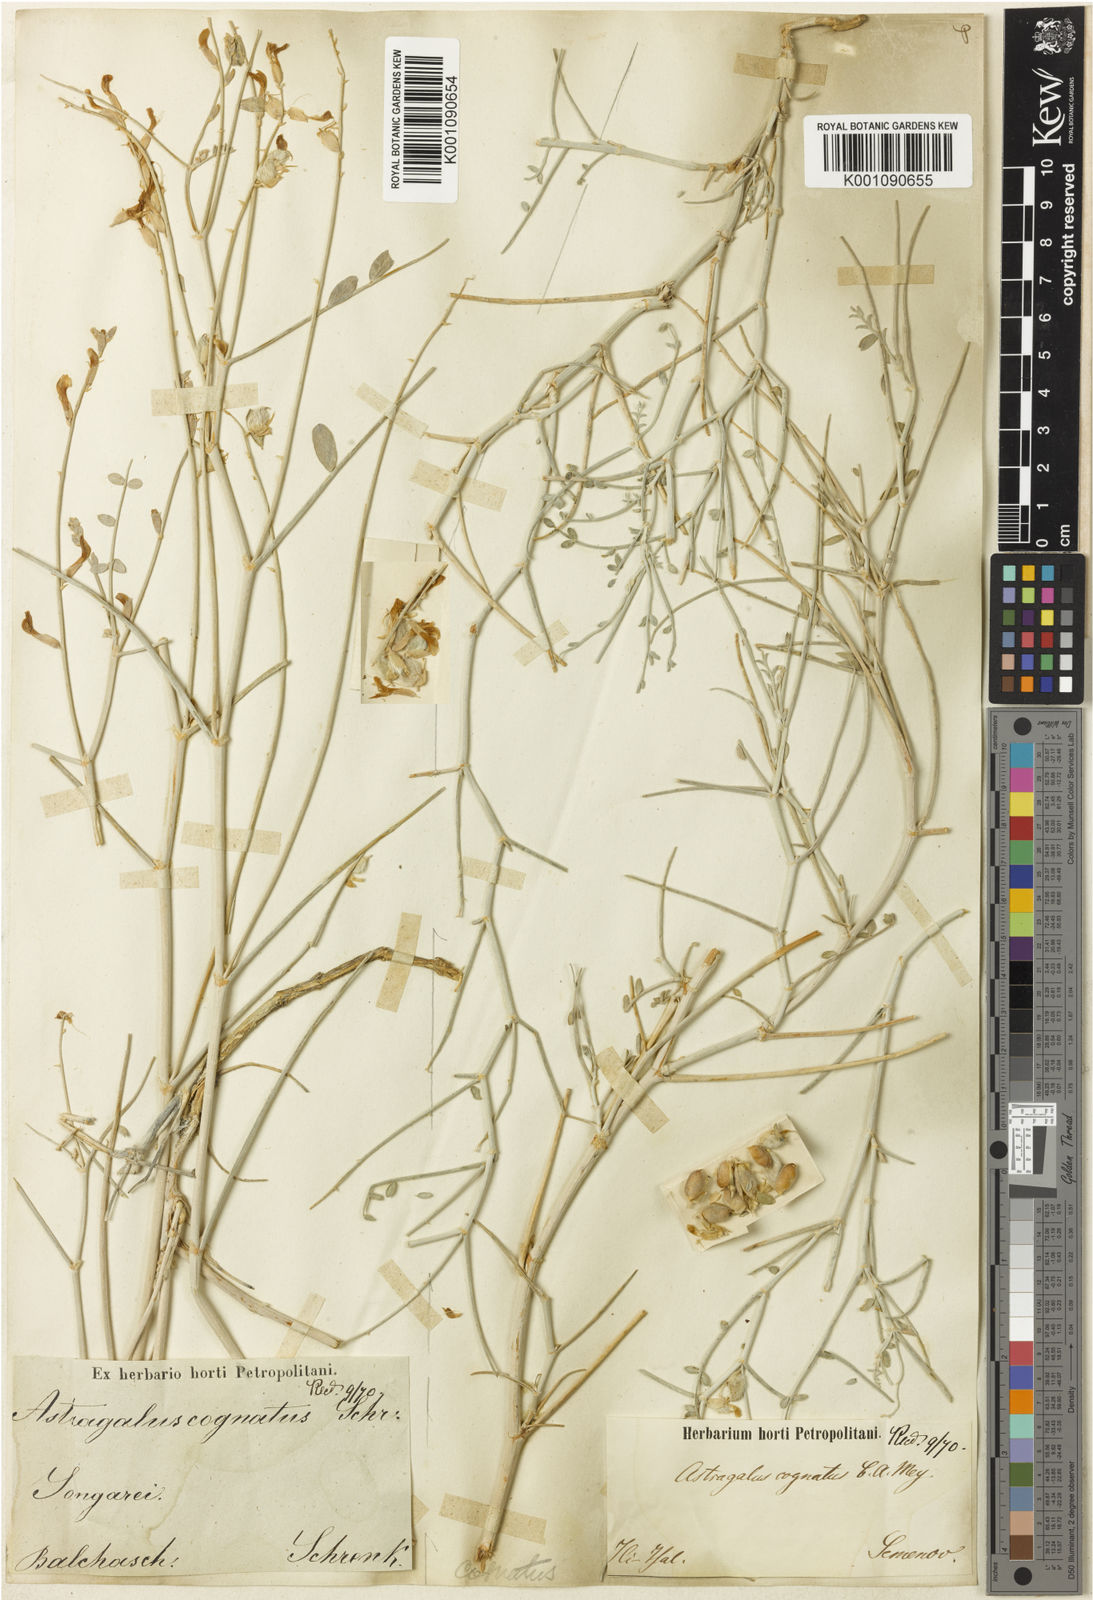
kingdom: Plantae
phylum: Tracheophyta
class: Magnoliopsida
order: Fabales
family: Fabaceae
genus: Astragalus
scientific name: Astragalus
